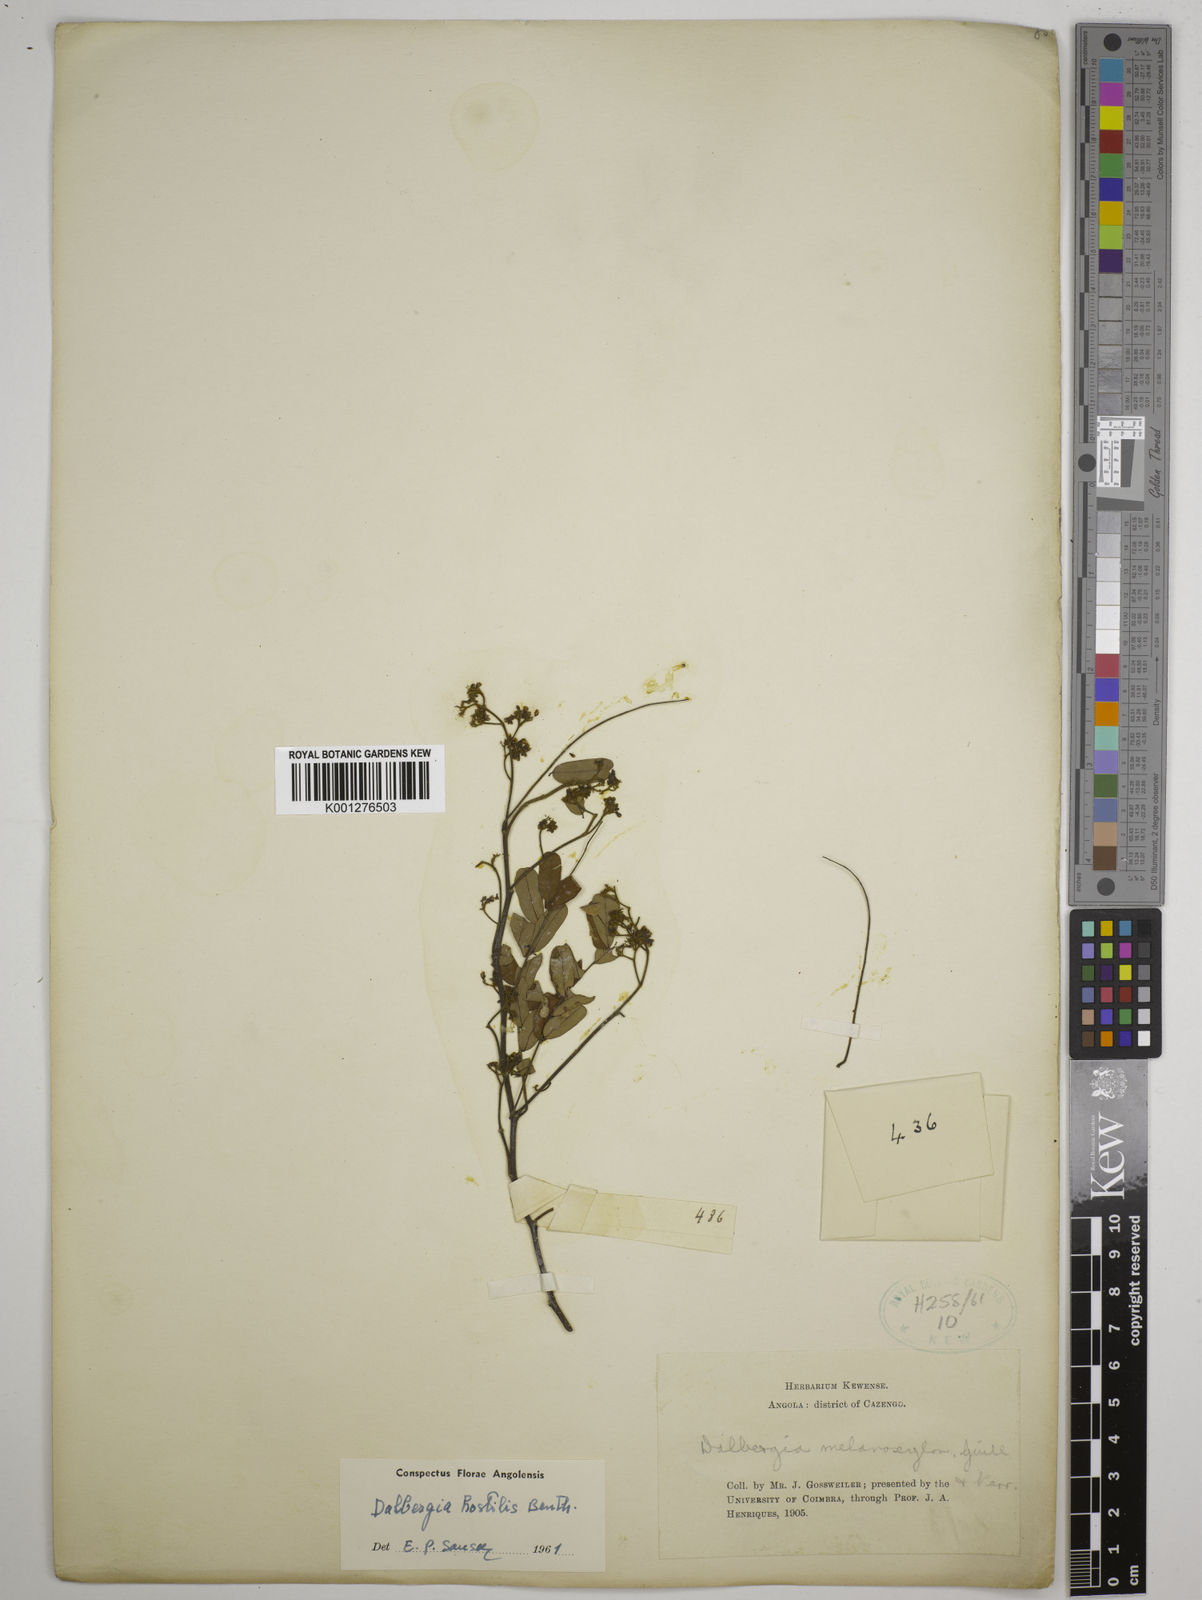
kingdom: Plantae
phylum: Tracheophyta
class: Magnoliopsida
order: Fabales
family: Fabaceae
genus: Dalbergia
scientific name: Dalbergia hostilis
